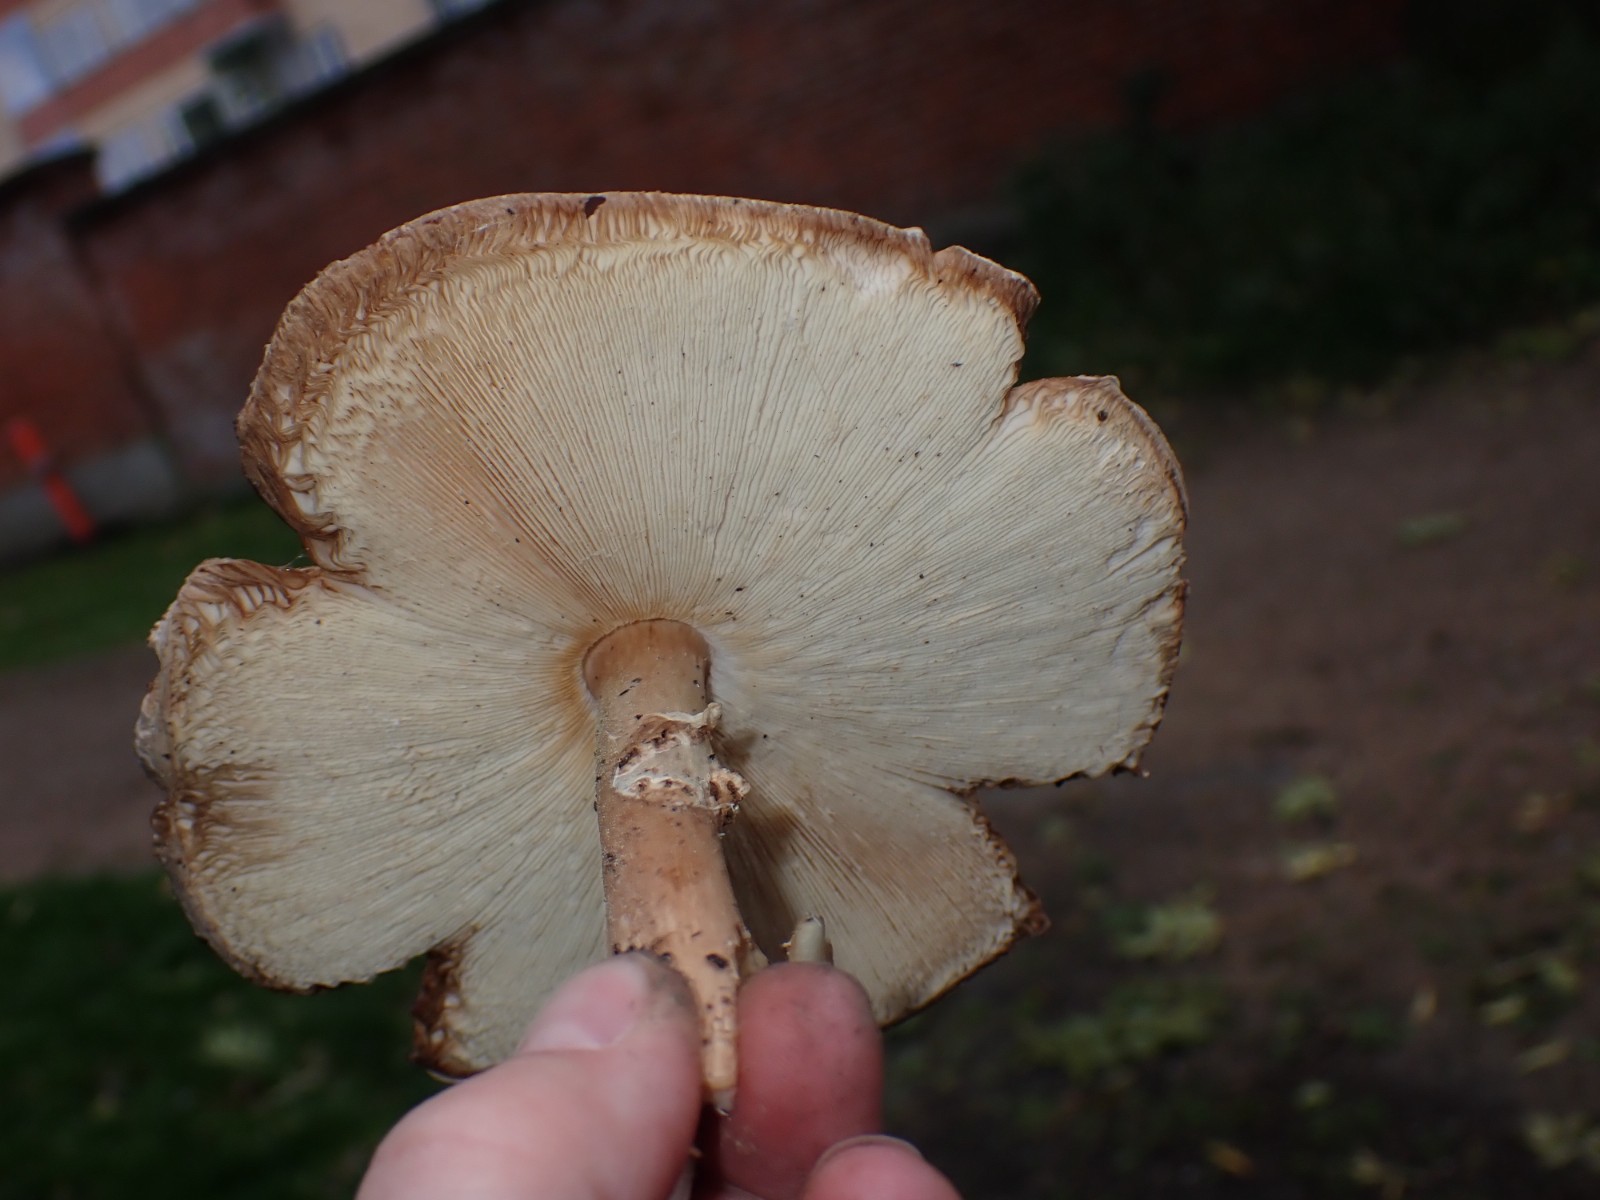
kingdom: Fungi
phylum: Basidiomycota
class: Agaricomycetes
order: Agaricales
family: Agaricaceae
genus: Echinoderma
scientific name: Echinoderma asperum
